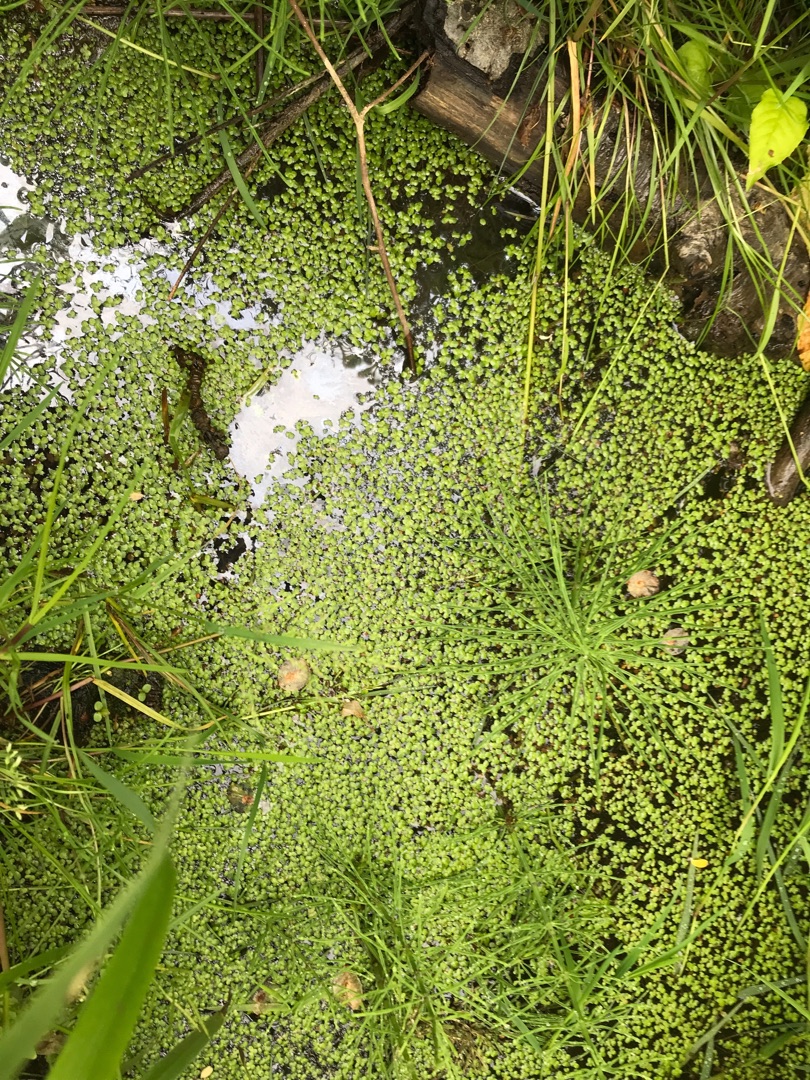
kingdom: Plantae
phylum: Tracheophyta
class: Liliopsida
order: Alismatales
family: Araceae
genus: Lemna
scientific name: Lemna
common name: Andemad (Lemna-slægten)
